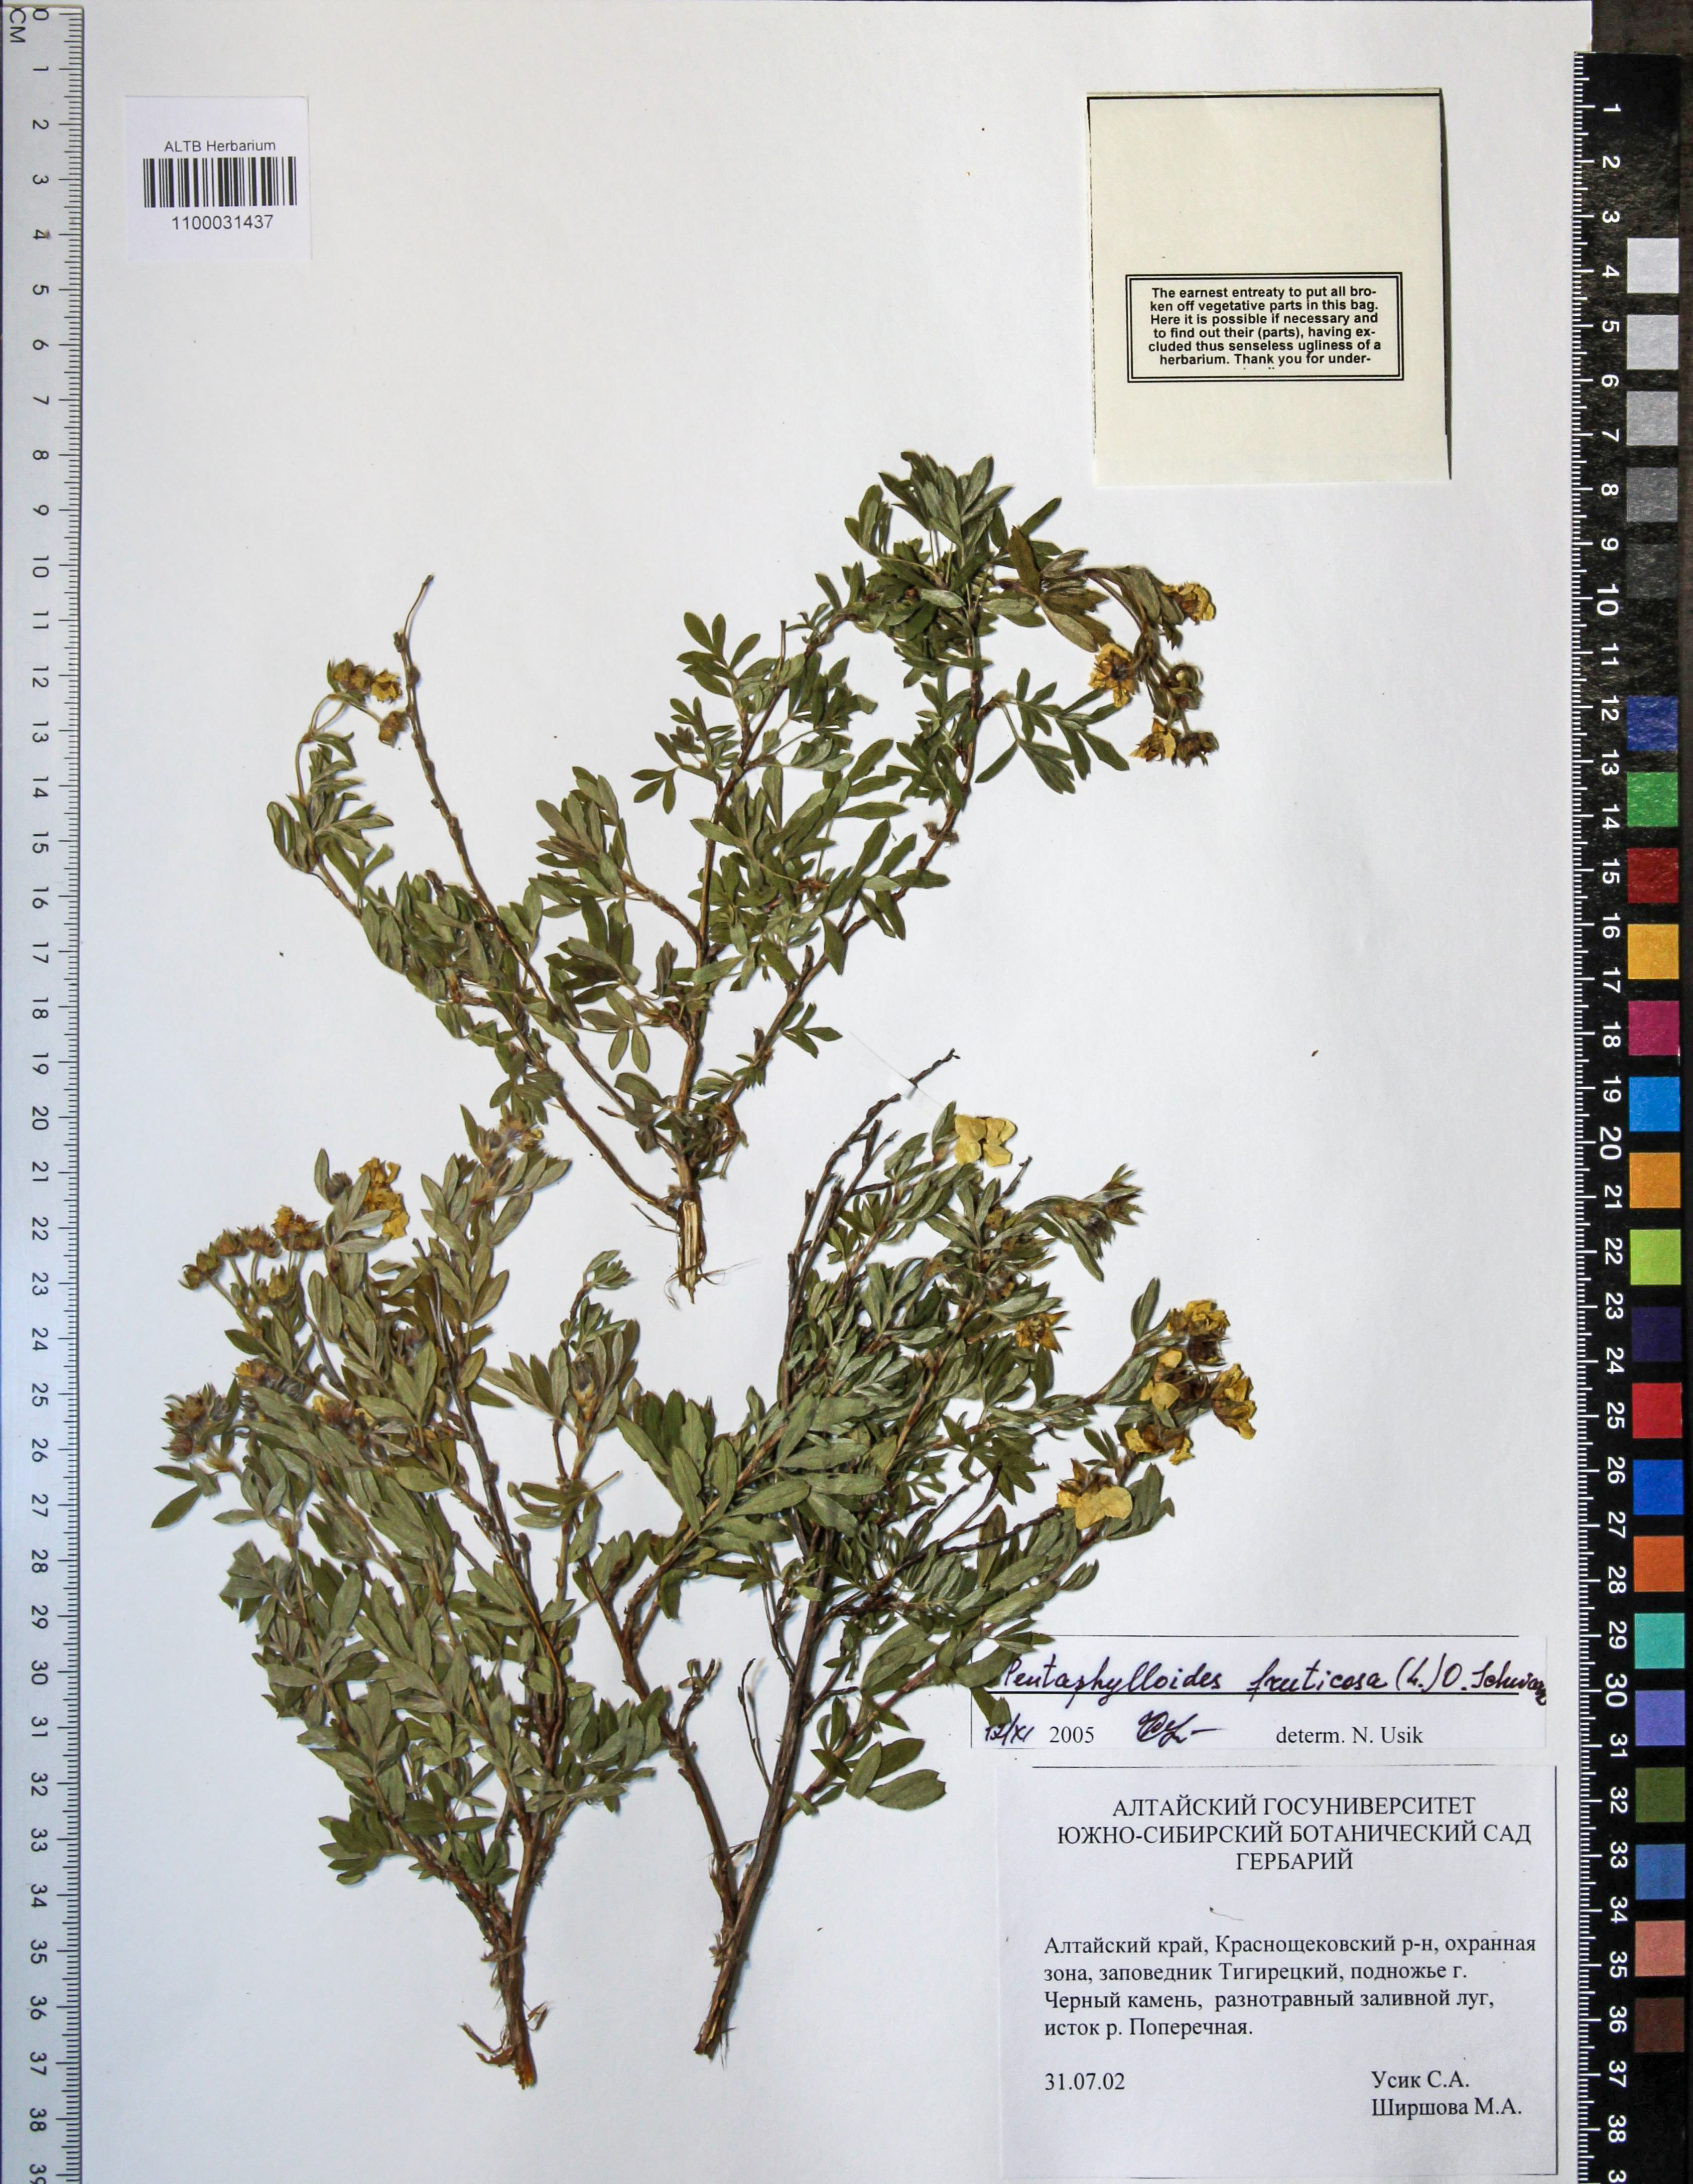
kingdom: Plantae
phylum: Tracheophyta
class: Magnoliopsida
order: Rosales
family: Rosaceae
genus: Dasiphora
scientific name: Dasiphora fruticosa
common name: Shrubby cinquefoil
